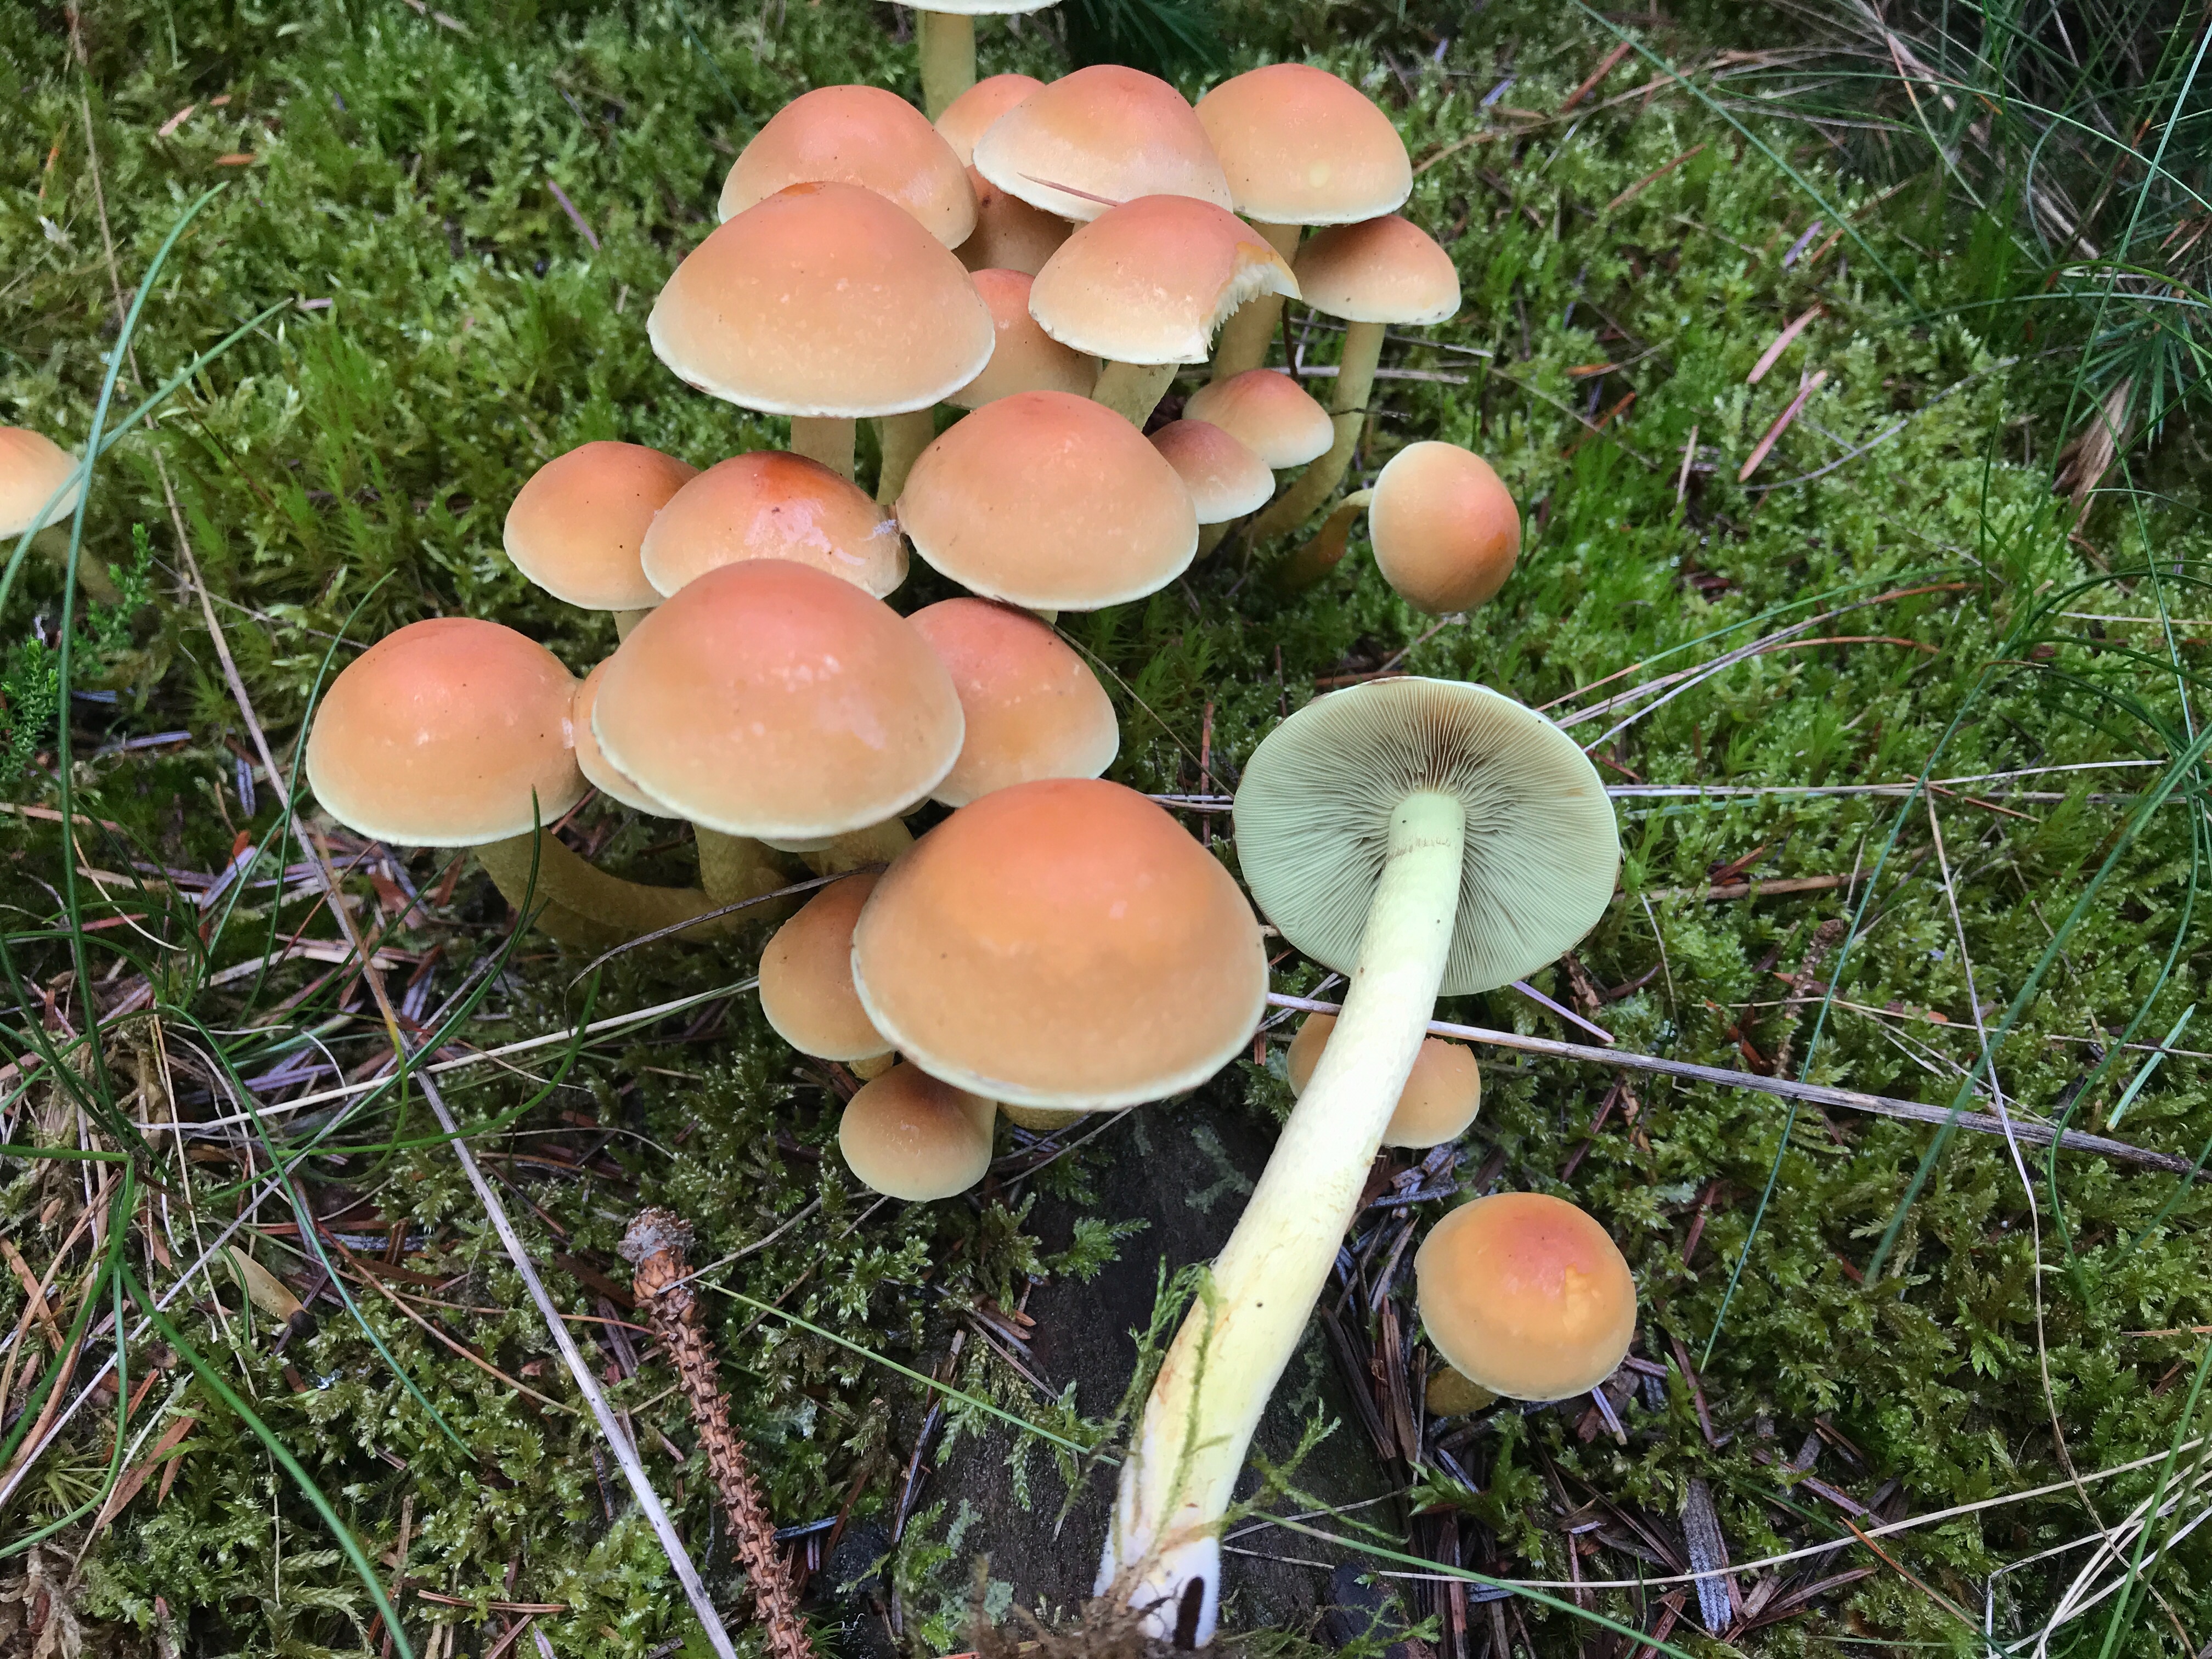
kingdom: Fungi
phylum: Basidiomycota
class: Agaricomycetes
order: Agaricales
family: Strophariaceae
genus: Hypholoma
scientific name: Hypholoma fasciculare
